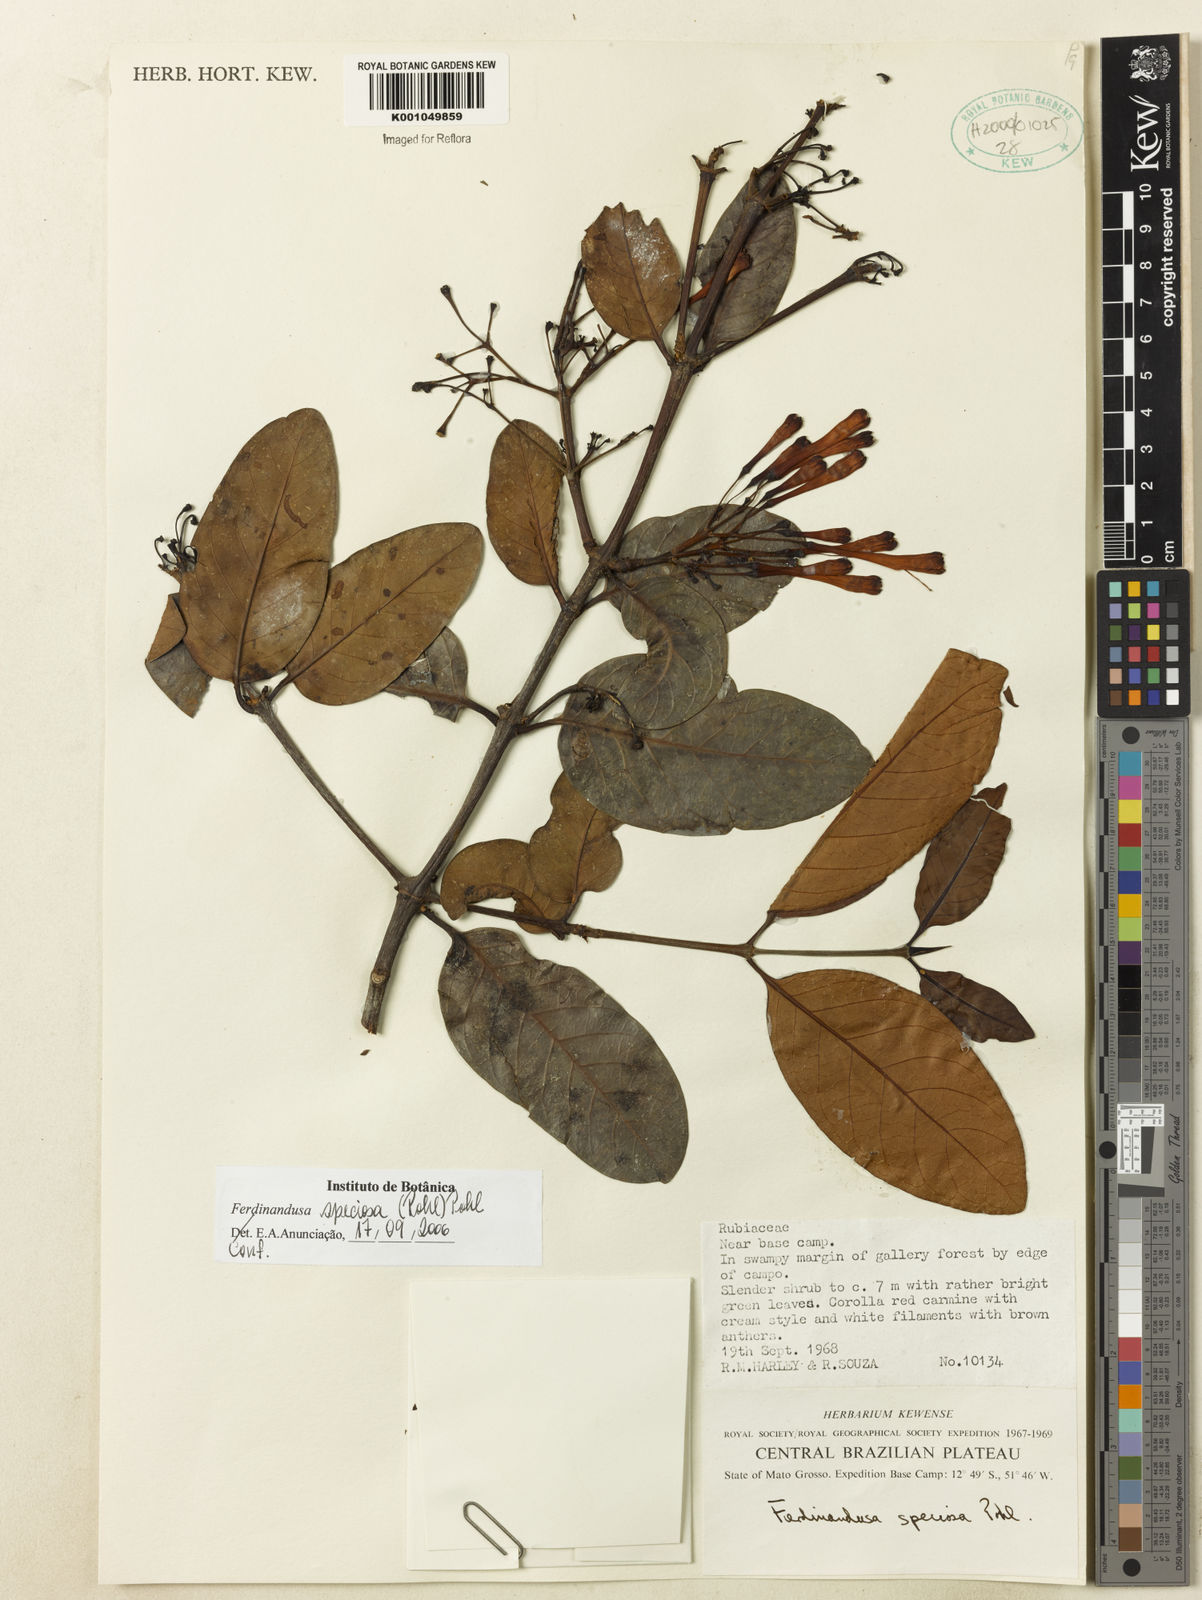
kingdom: Plantae
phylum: Tracheophyta
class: Magnoliopsida
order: Gentianales
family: Rubiaceae
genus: Ferdinandusa
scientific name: Ferdinandusa speciosa
